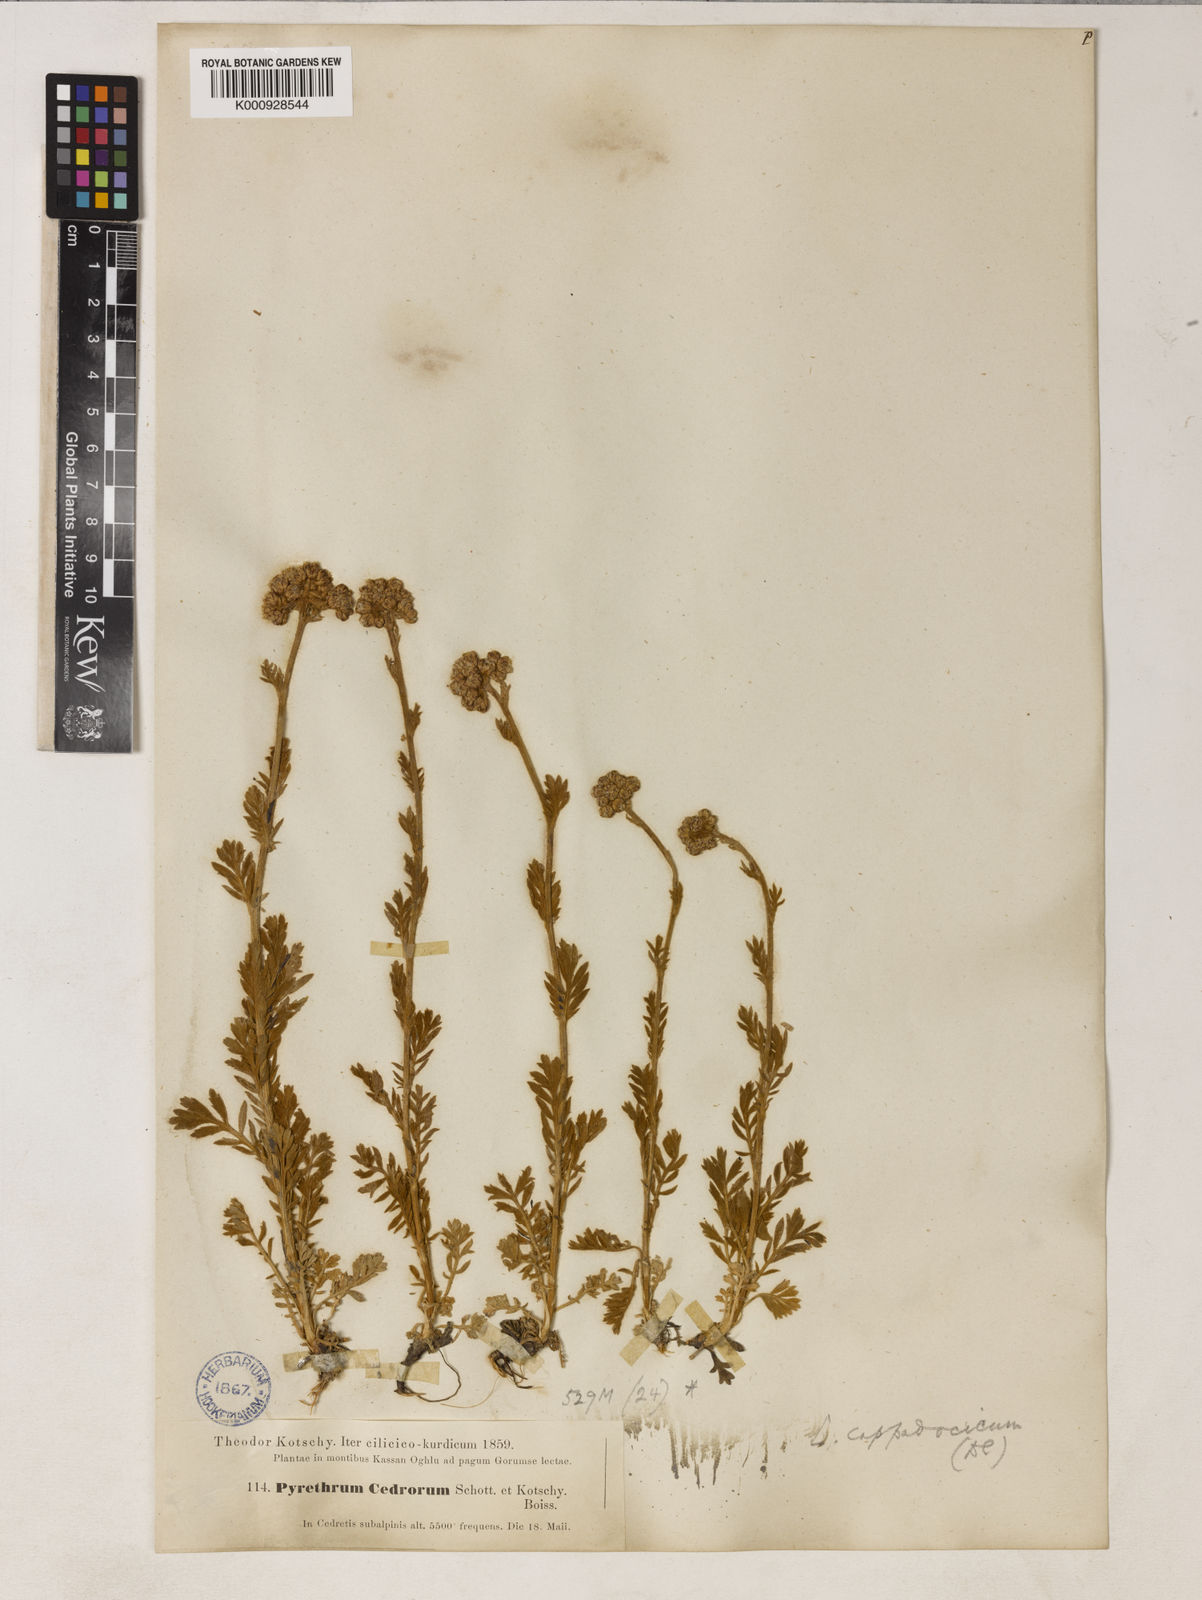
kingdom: Plantae
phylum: Tracheophyta
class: Magnoliopsida
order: Asterales
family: Asteraceae
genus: Tanacetum
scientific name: Tanacetum cappadocicum
